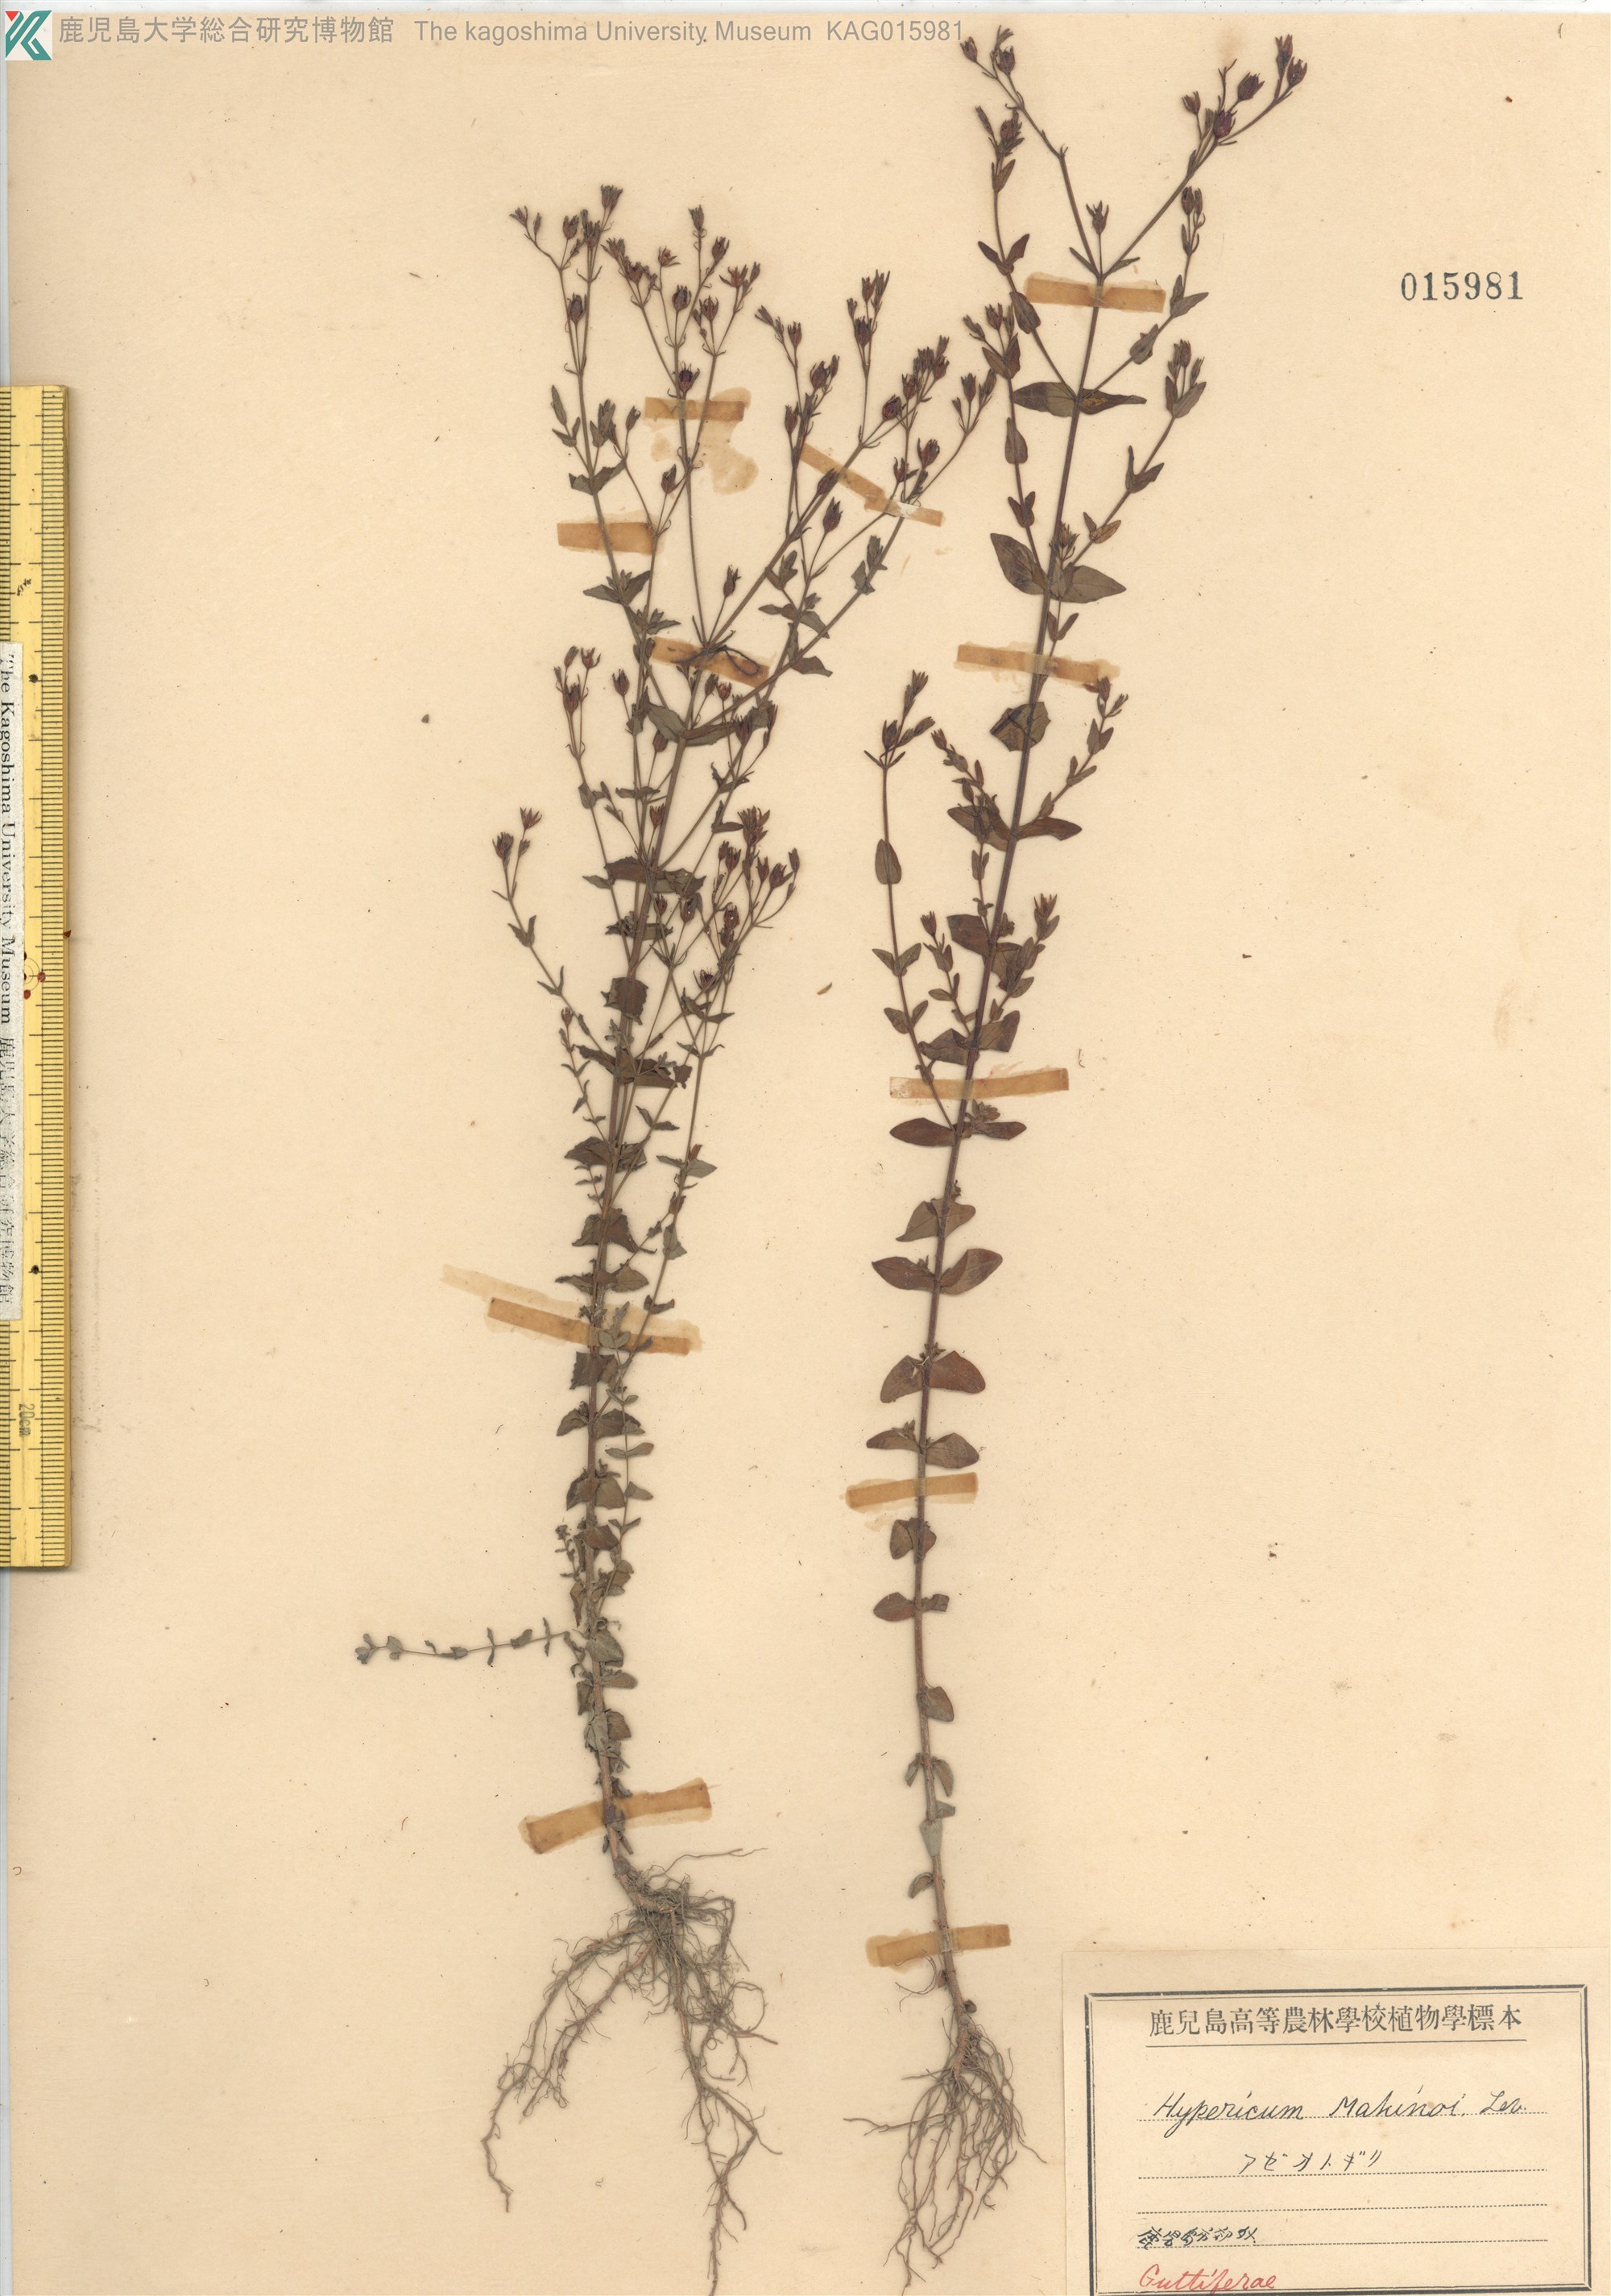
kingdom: Plantae
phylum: Tracheophyta
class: Magnoliopsida
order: Malpighiales
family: Hypericaceae
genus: Hypericum
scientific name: Hypericum japonicum
